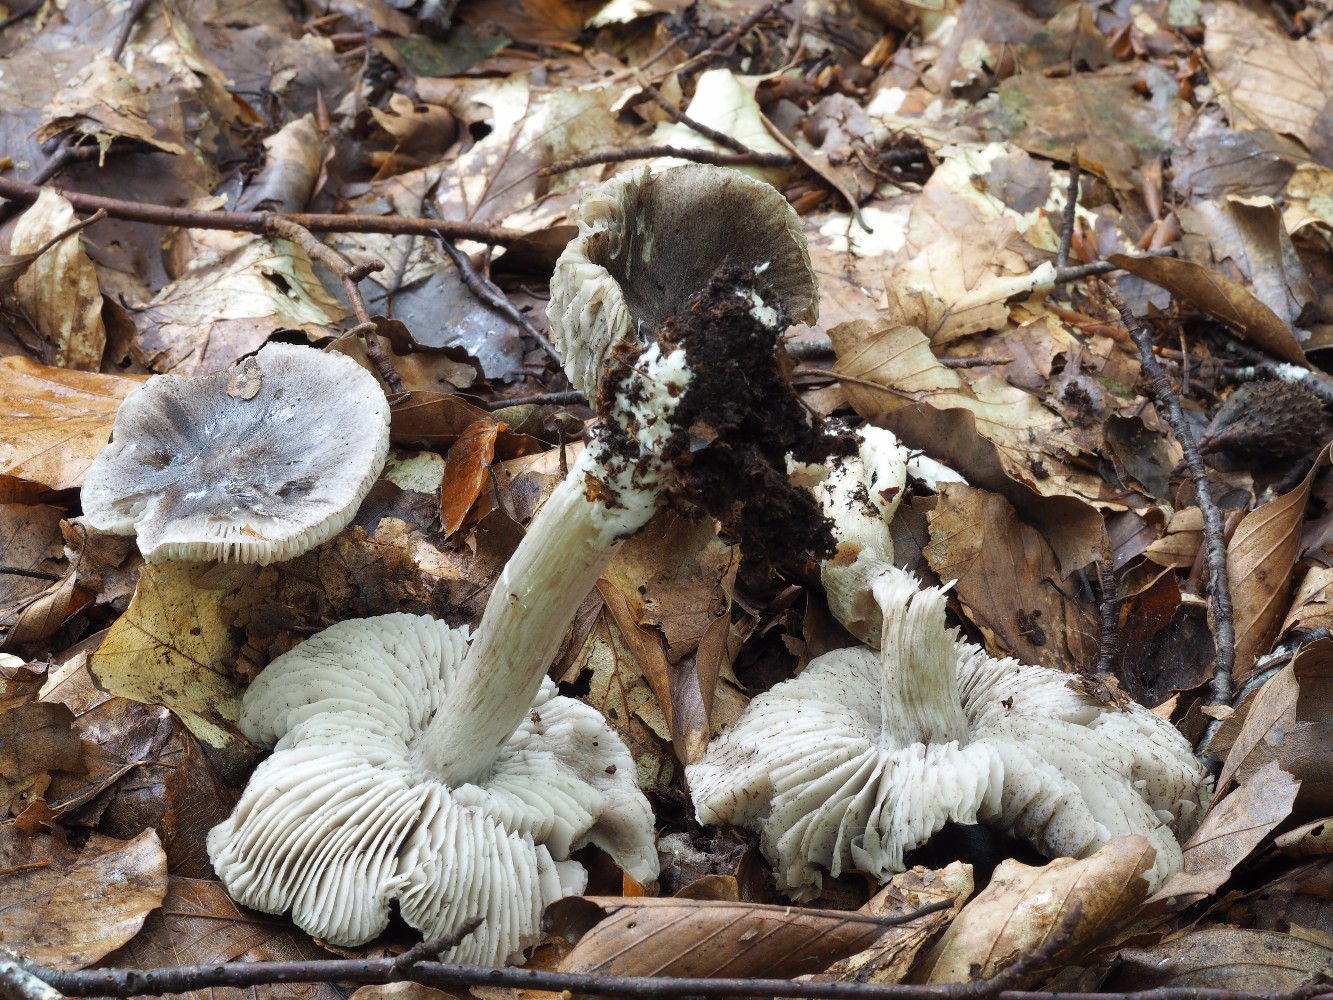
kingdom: Fungi
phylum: Basidiomycota
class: Agaricomycetes
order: Agaricales
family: Tricholomataceae
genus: Tricholoma
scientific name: Tricholoma sciodes
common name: stribet ridderhat
